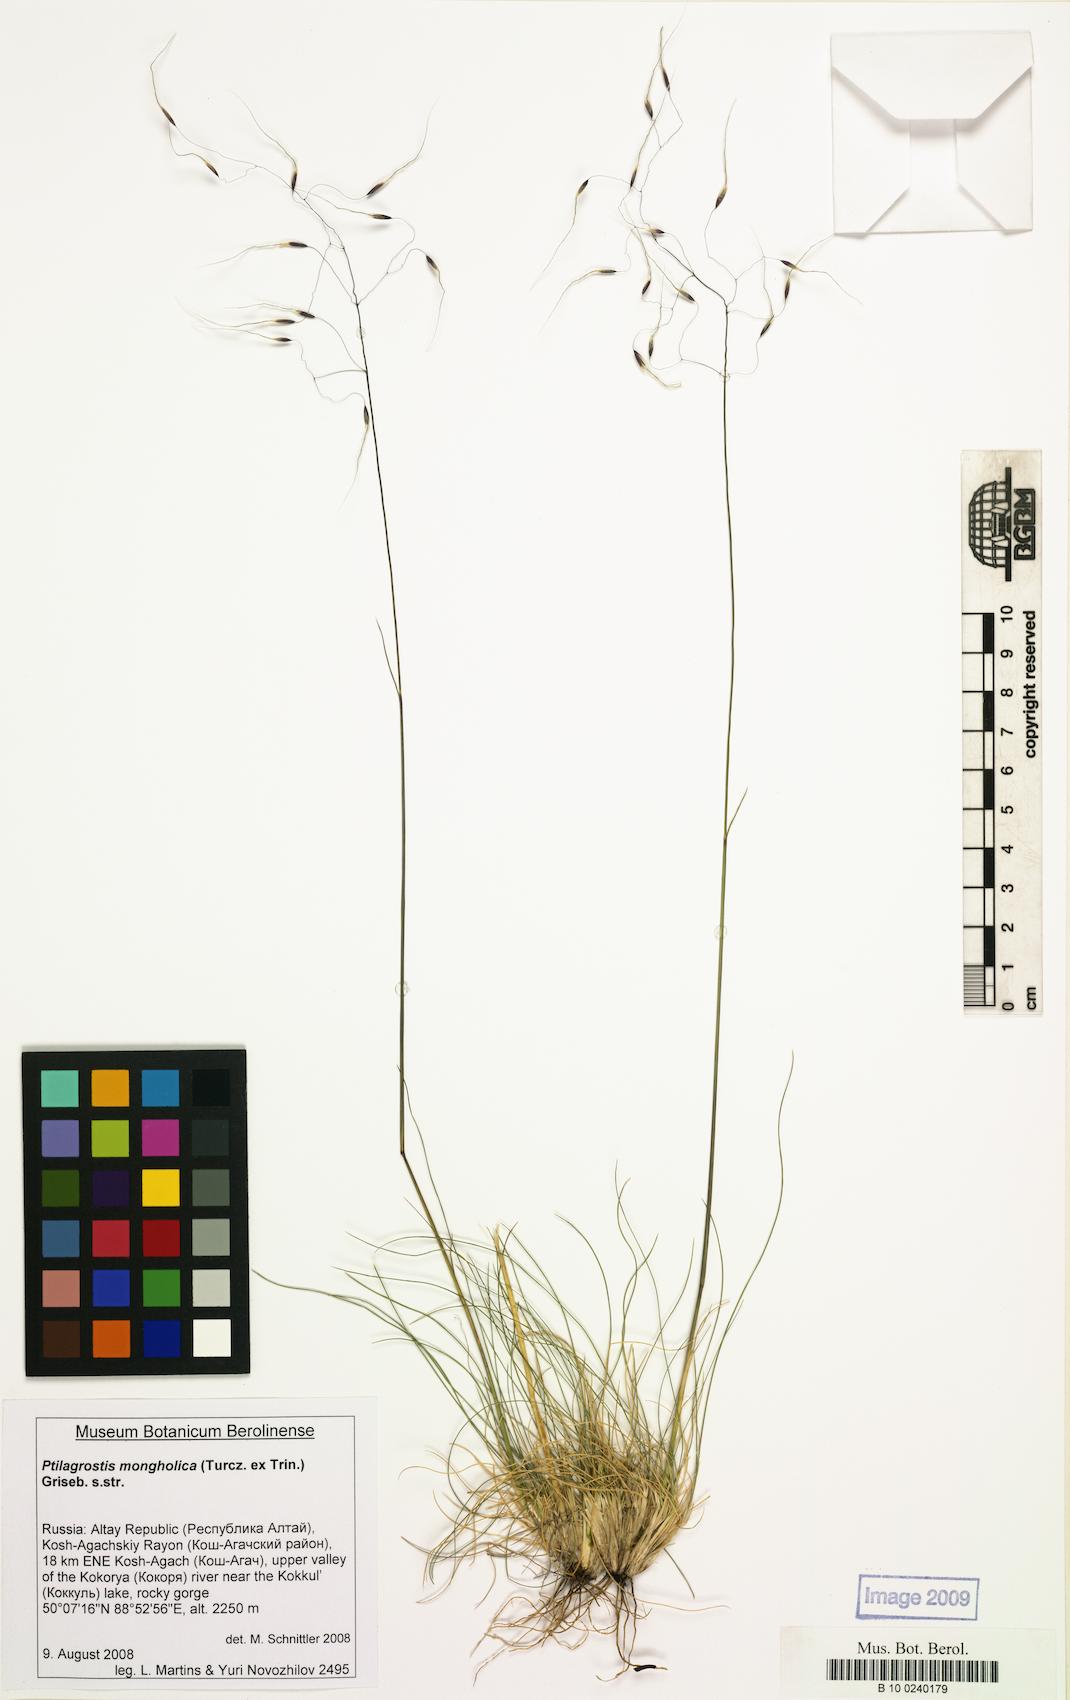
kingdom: Plantae
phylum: Tracheophyta
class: Liliopsida
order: Poales
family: Poaceae
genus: Ptilagrostis
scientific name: Ptilagrostis mongholica
